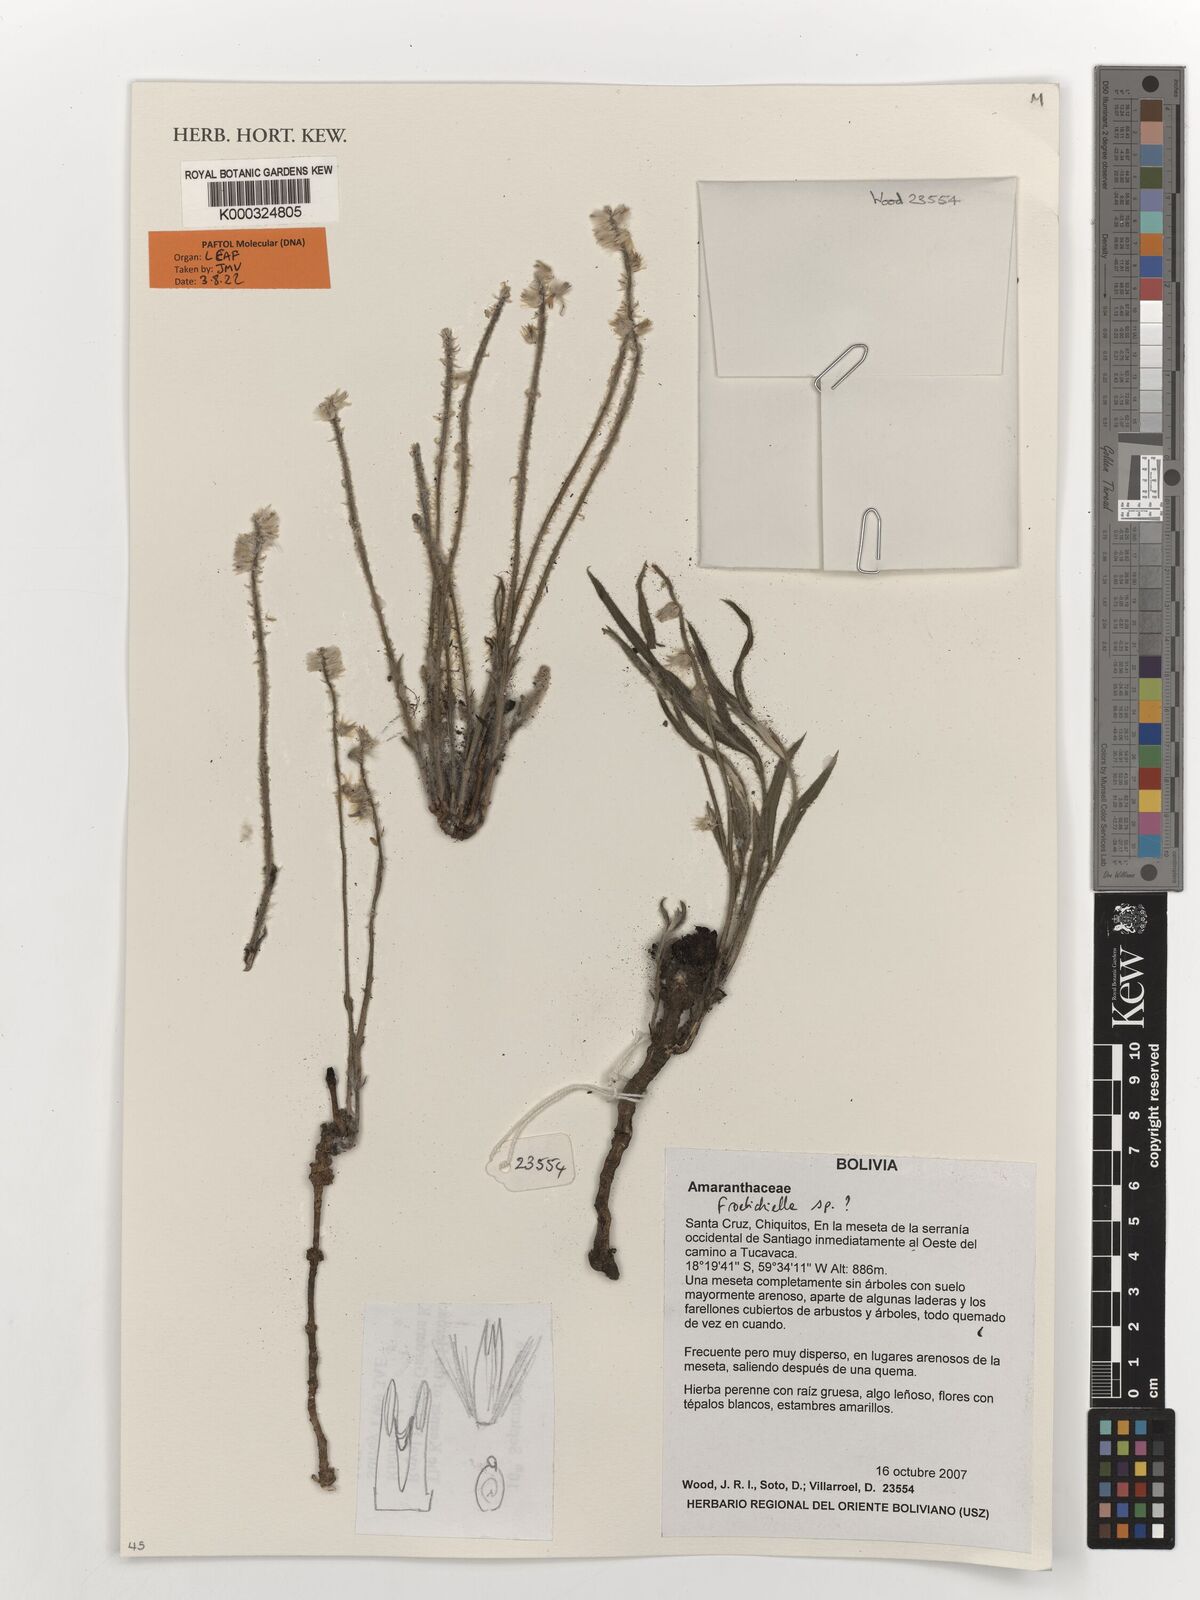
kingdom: Plantae
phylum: Tracheophyta
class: Magnoliopsida
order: Caryophyllales
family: Amaranthaceae
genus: Froelichiella
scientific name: Froelichiella
